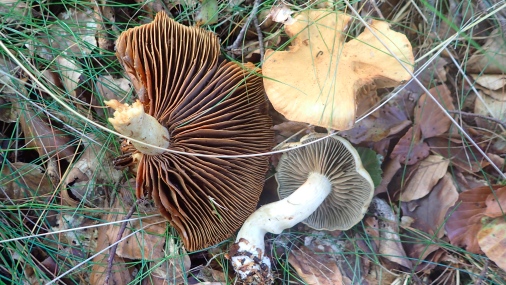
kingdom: Fungi
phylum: Basidiomycota
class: Agaricomycetes
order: Agaricales
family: Cortinariaceae
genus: Cortinarius
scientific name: Cortinarius subtortus
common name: olivengul slørhat
